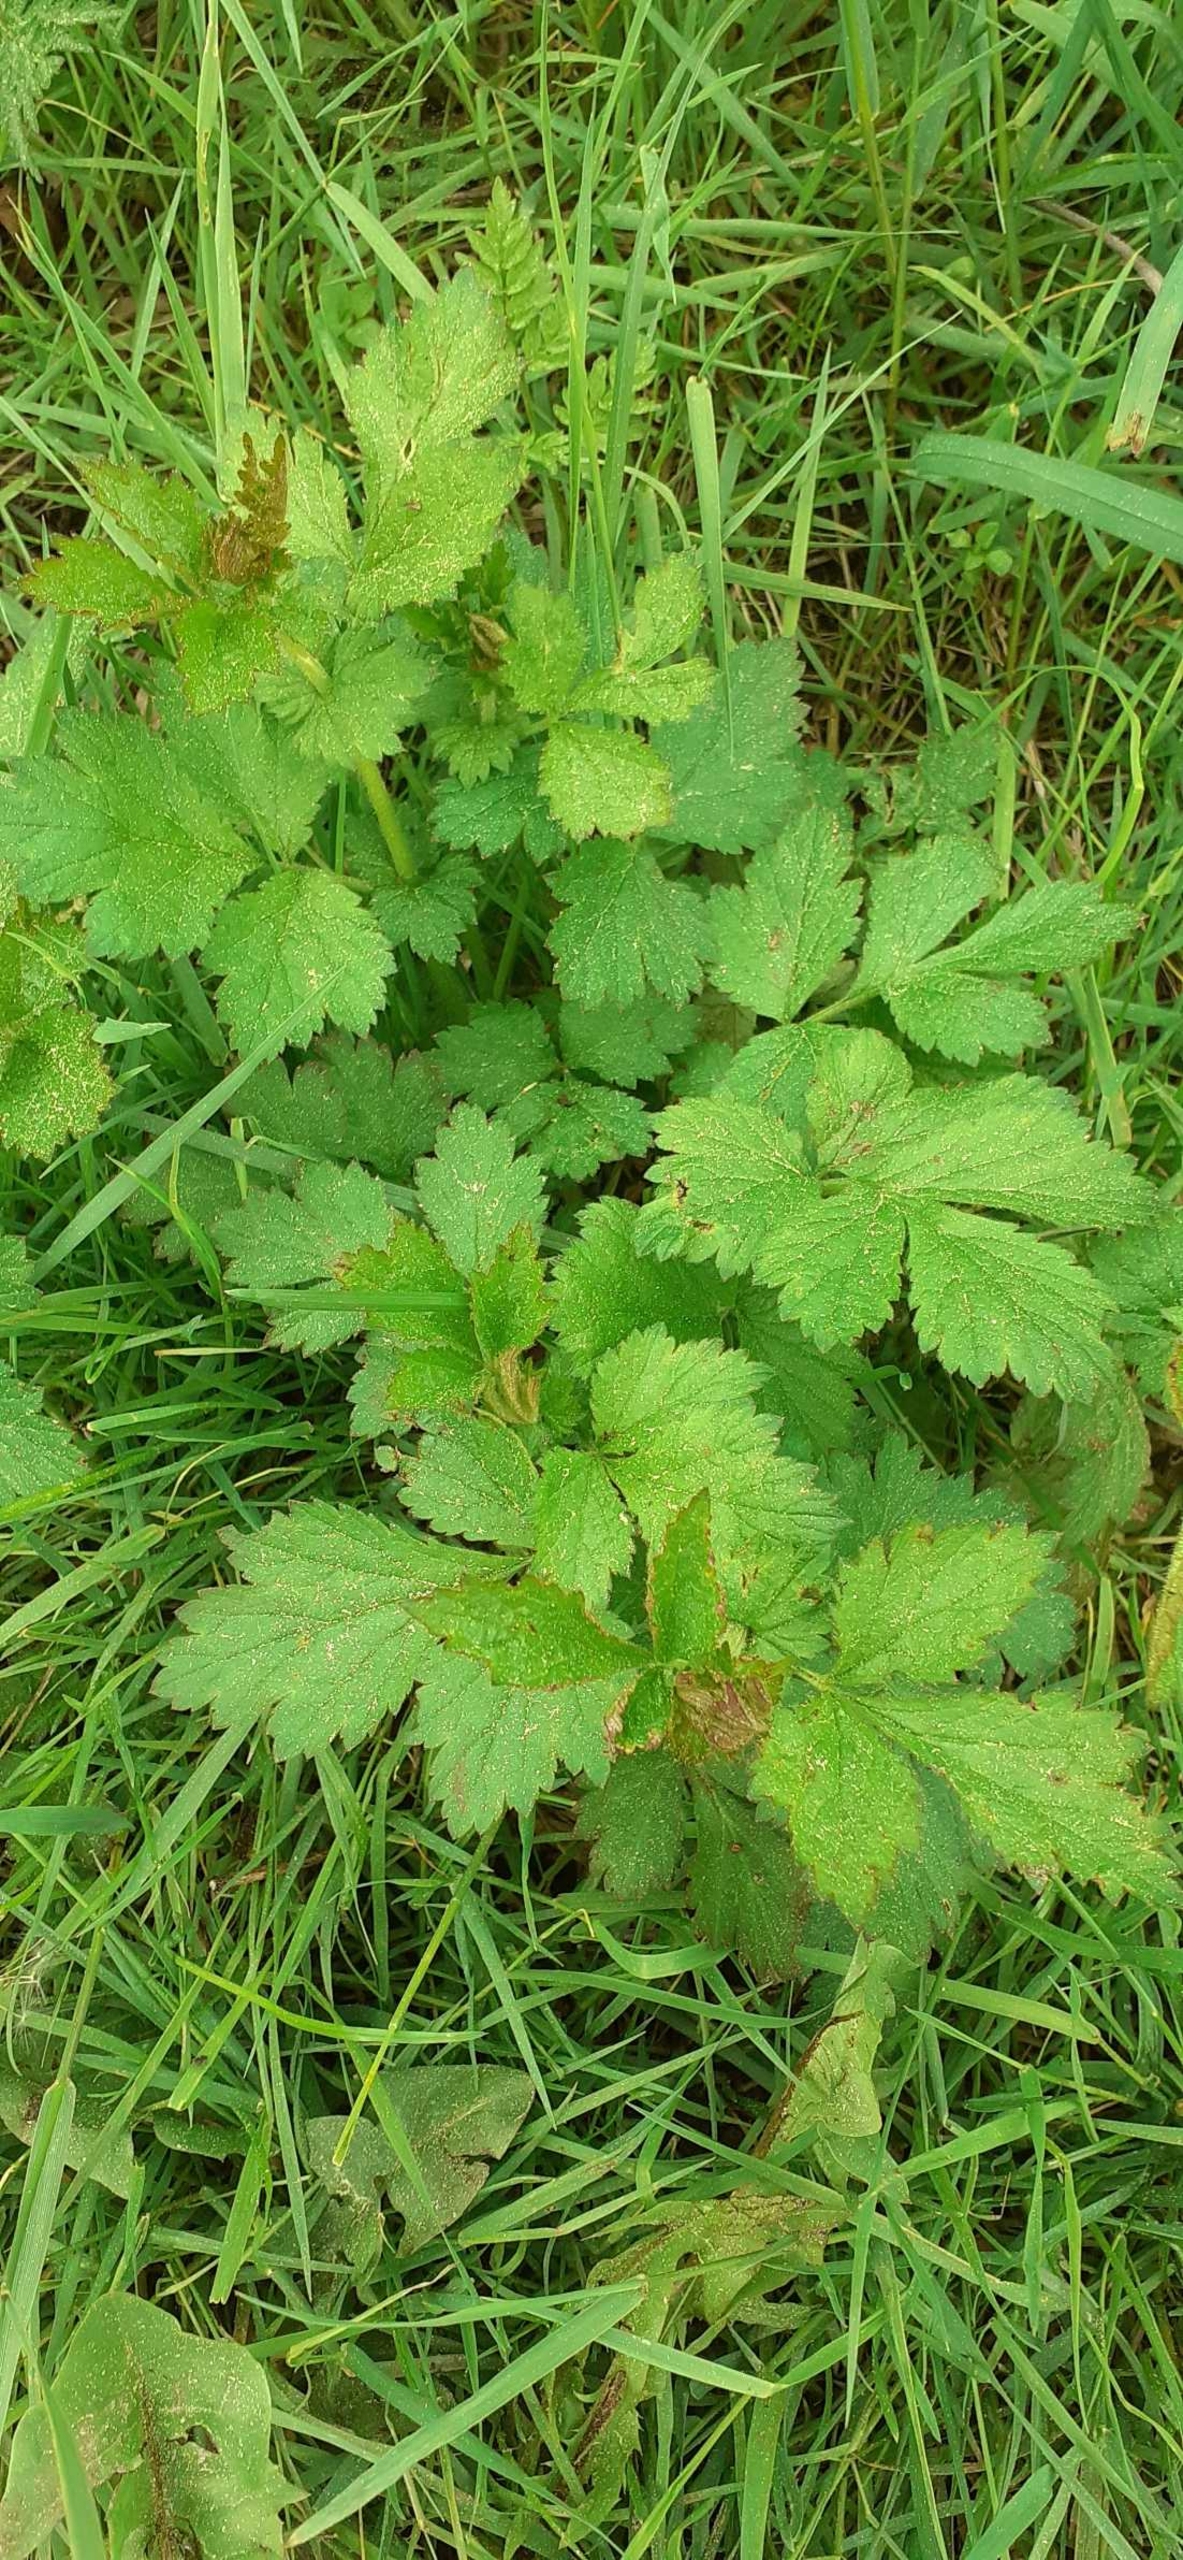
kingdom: Plantae
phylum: Tracheophyta
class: Magnoliopsida
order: Rosales
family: Rosaceae
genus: Geum
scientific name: Geum urbanum
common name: Feber-nellikerod
